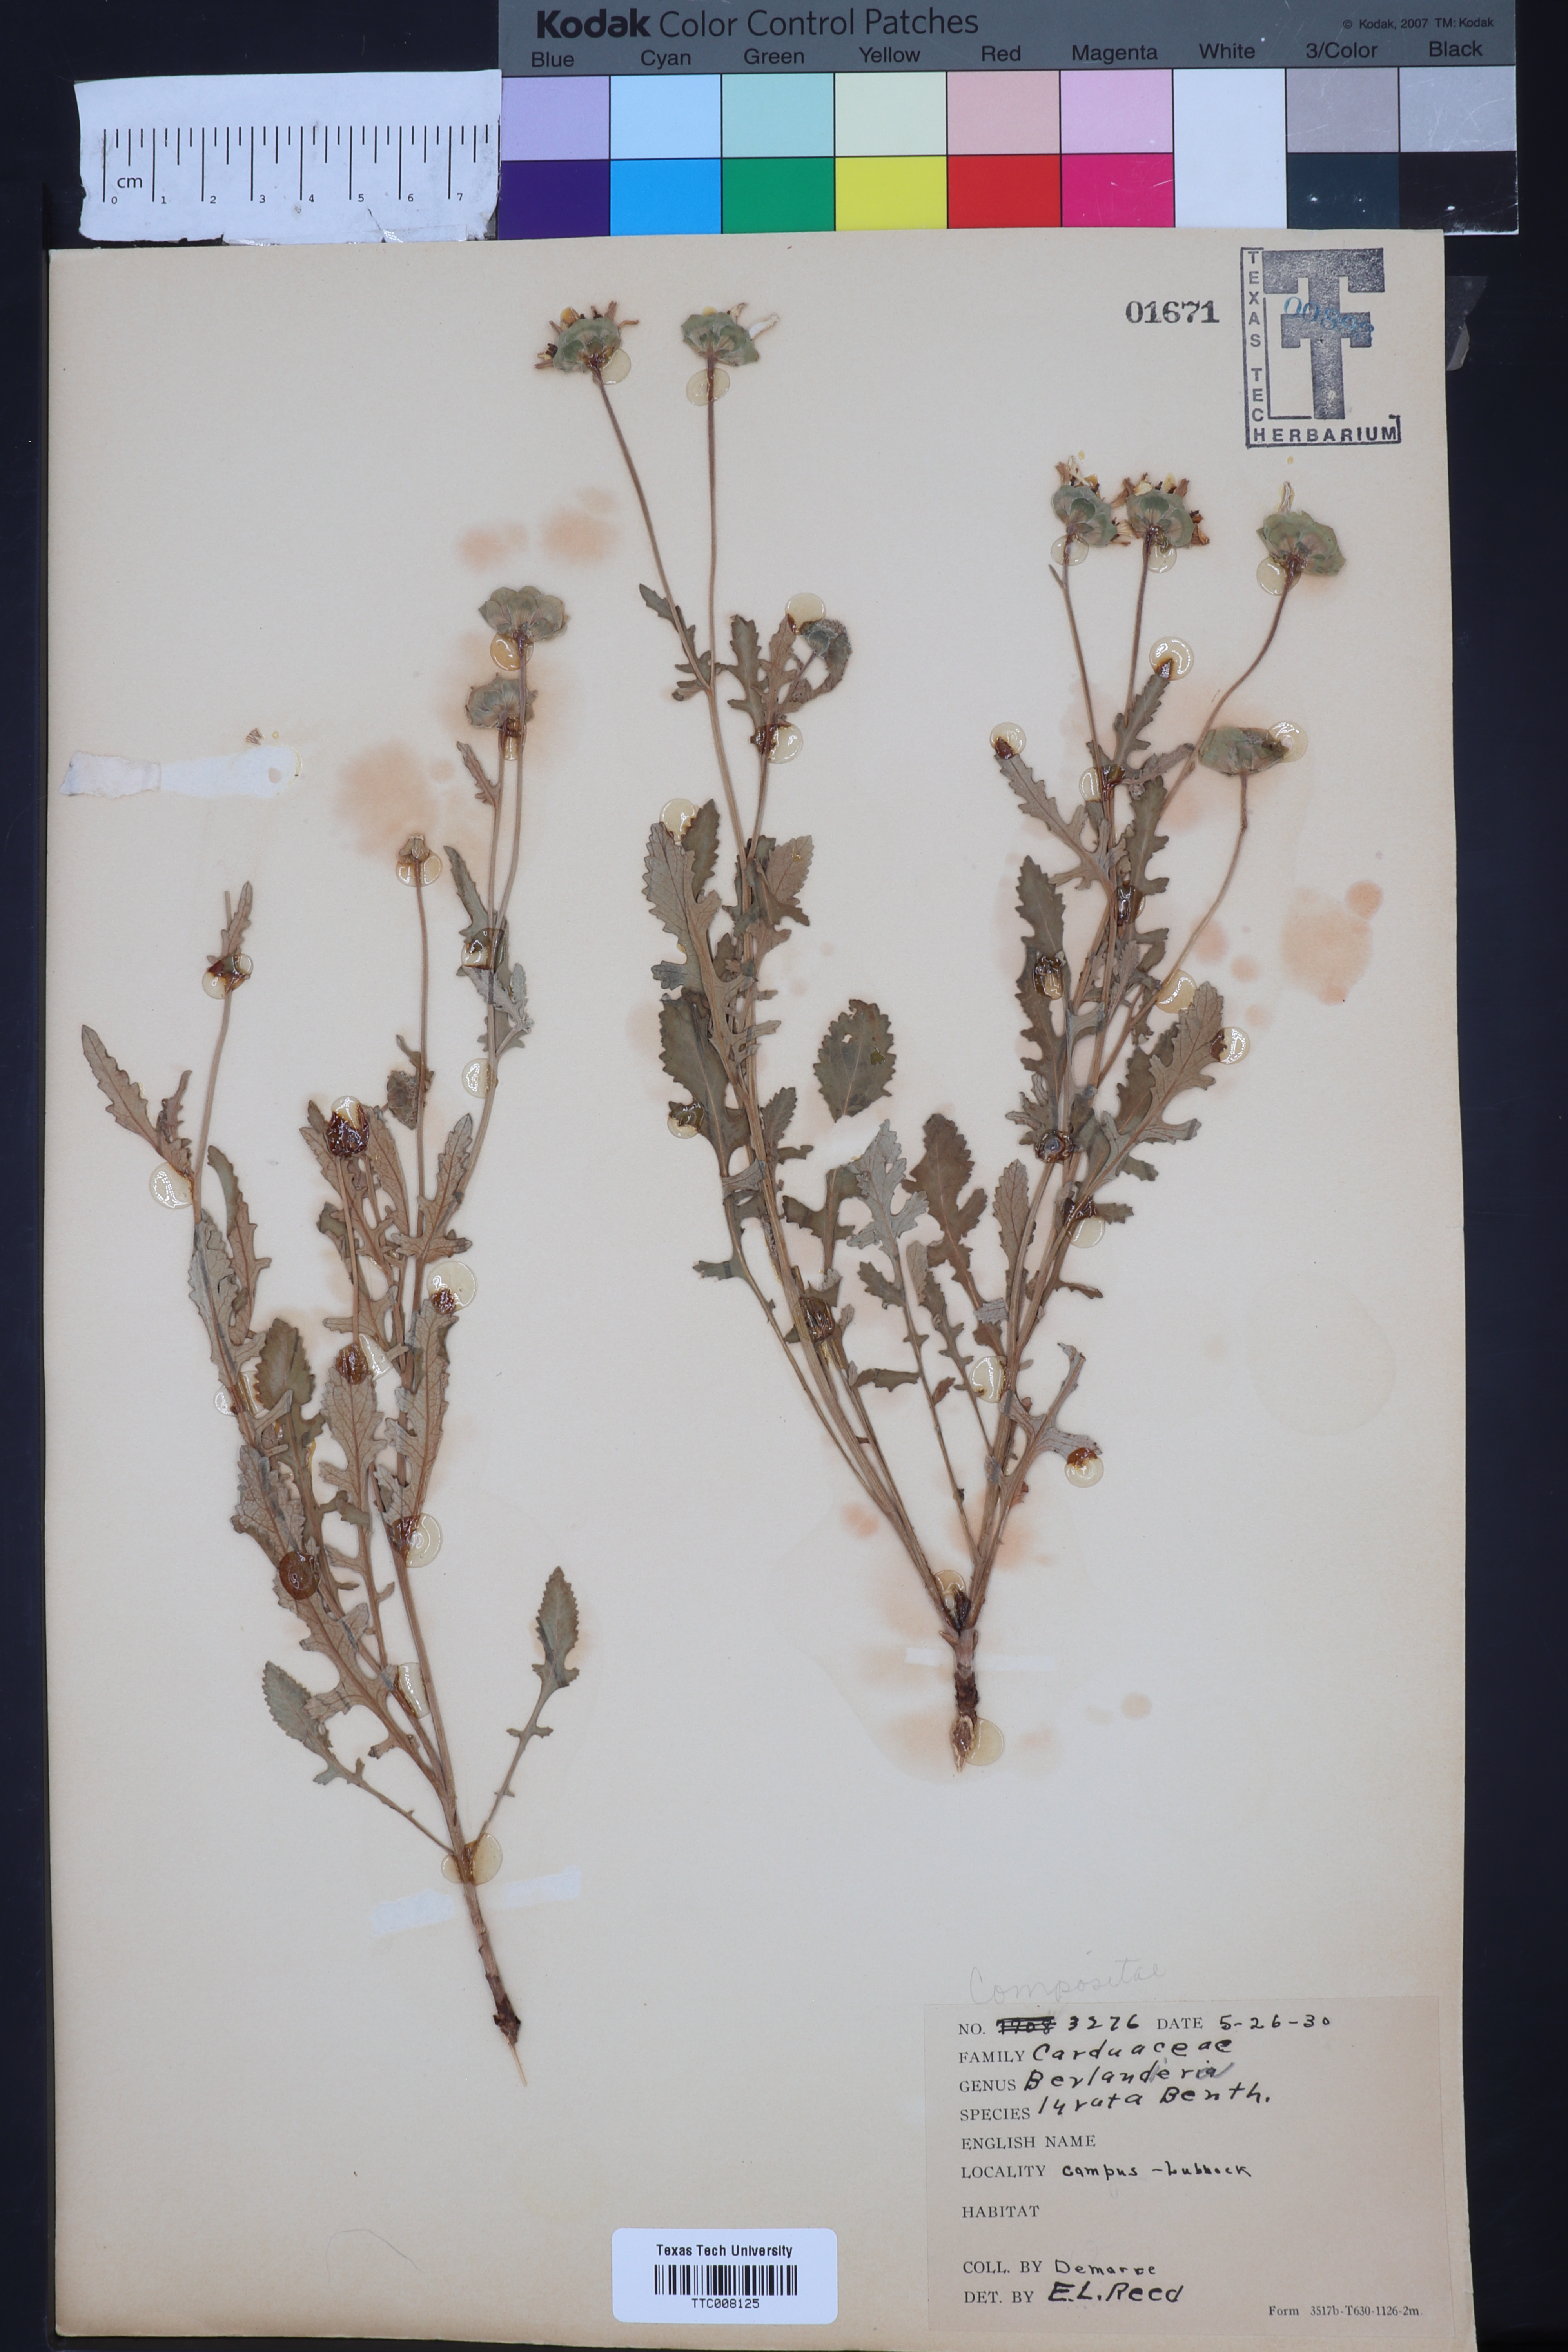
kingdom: Plantae
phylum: Tracheophyta
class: Magnoliopsida
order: Asterales
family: Asteraceae
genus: Berlandiera
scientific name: Berlandiera lyrata
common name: Chocolate-flower
